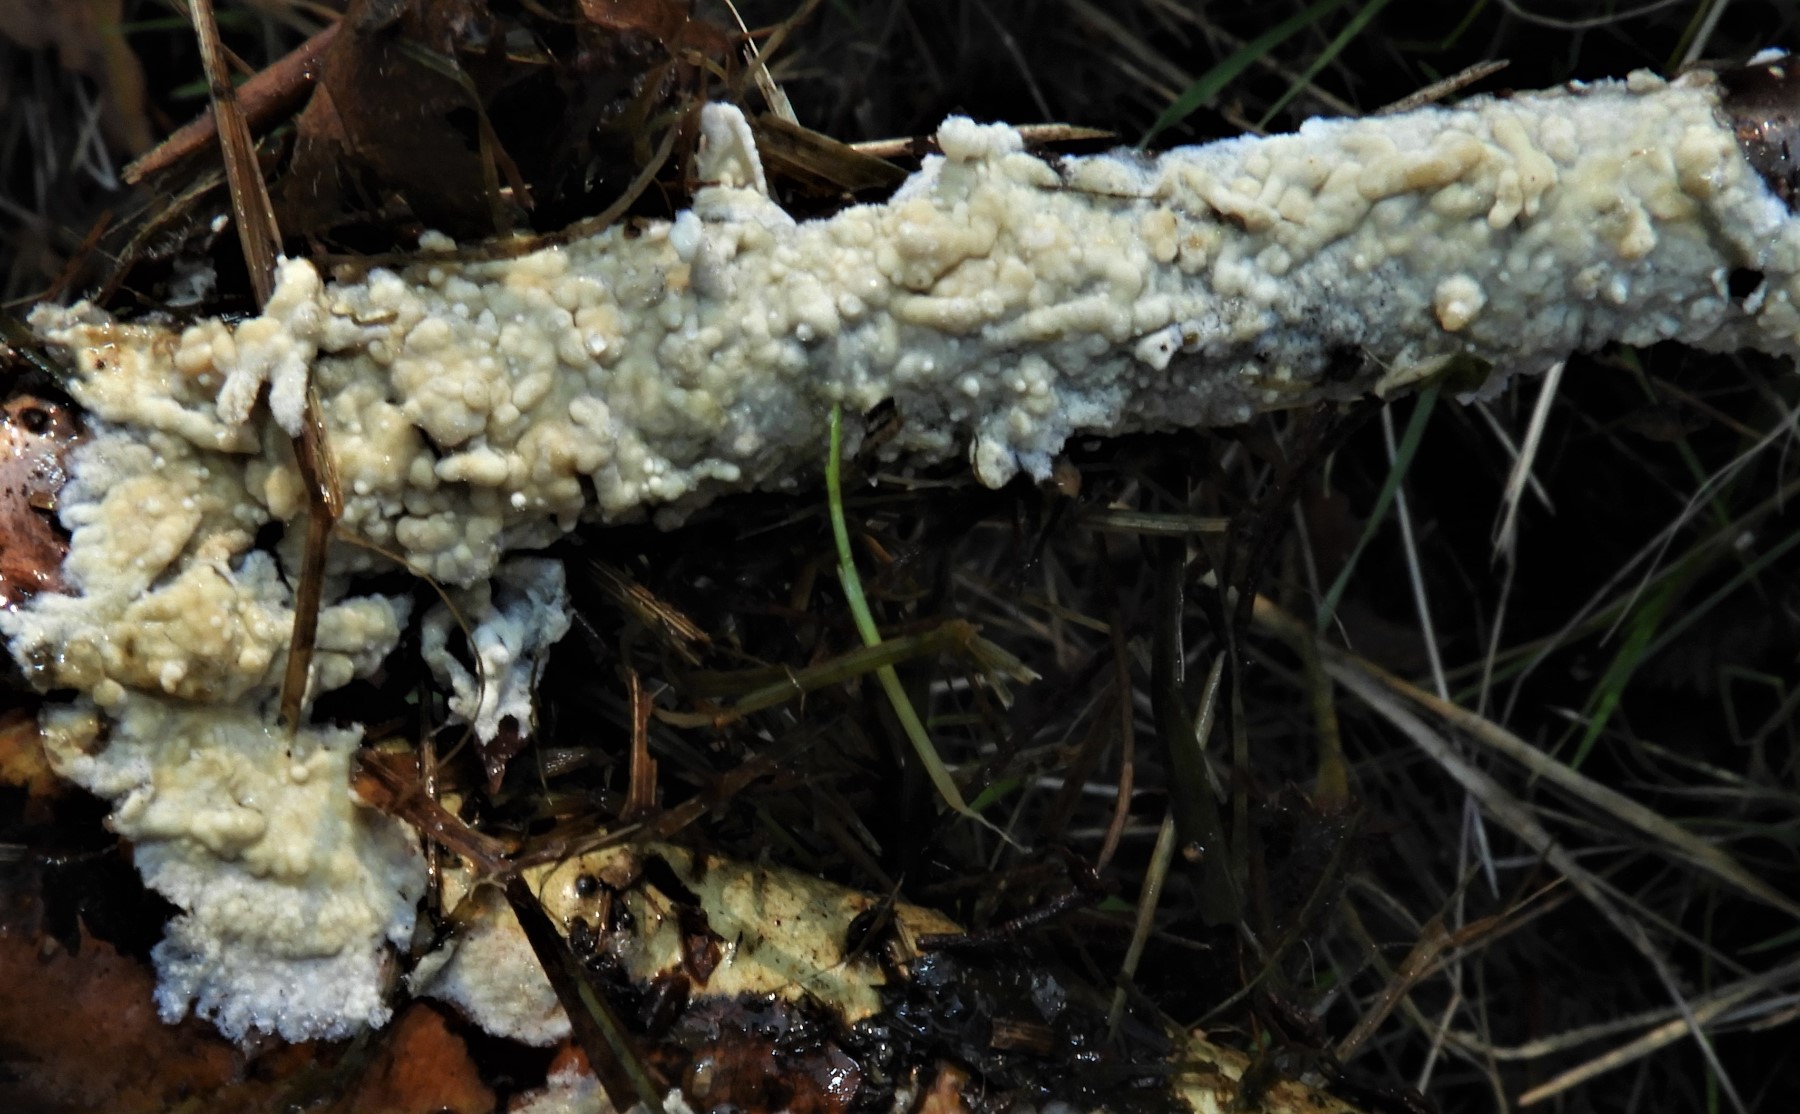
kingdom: Fungi
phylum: Basidiomycota
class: Agaricomycetes
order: Corticiales
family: Corticiaceae
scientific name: Corticiaceae
